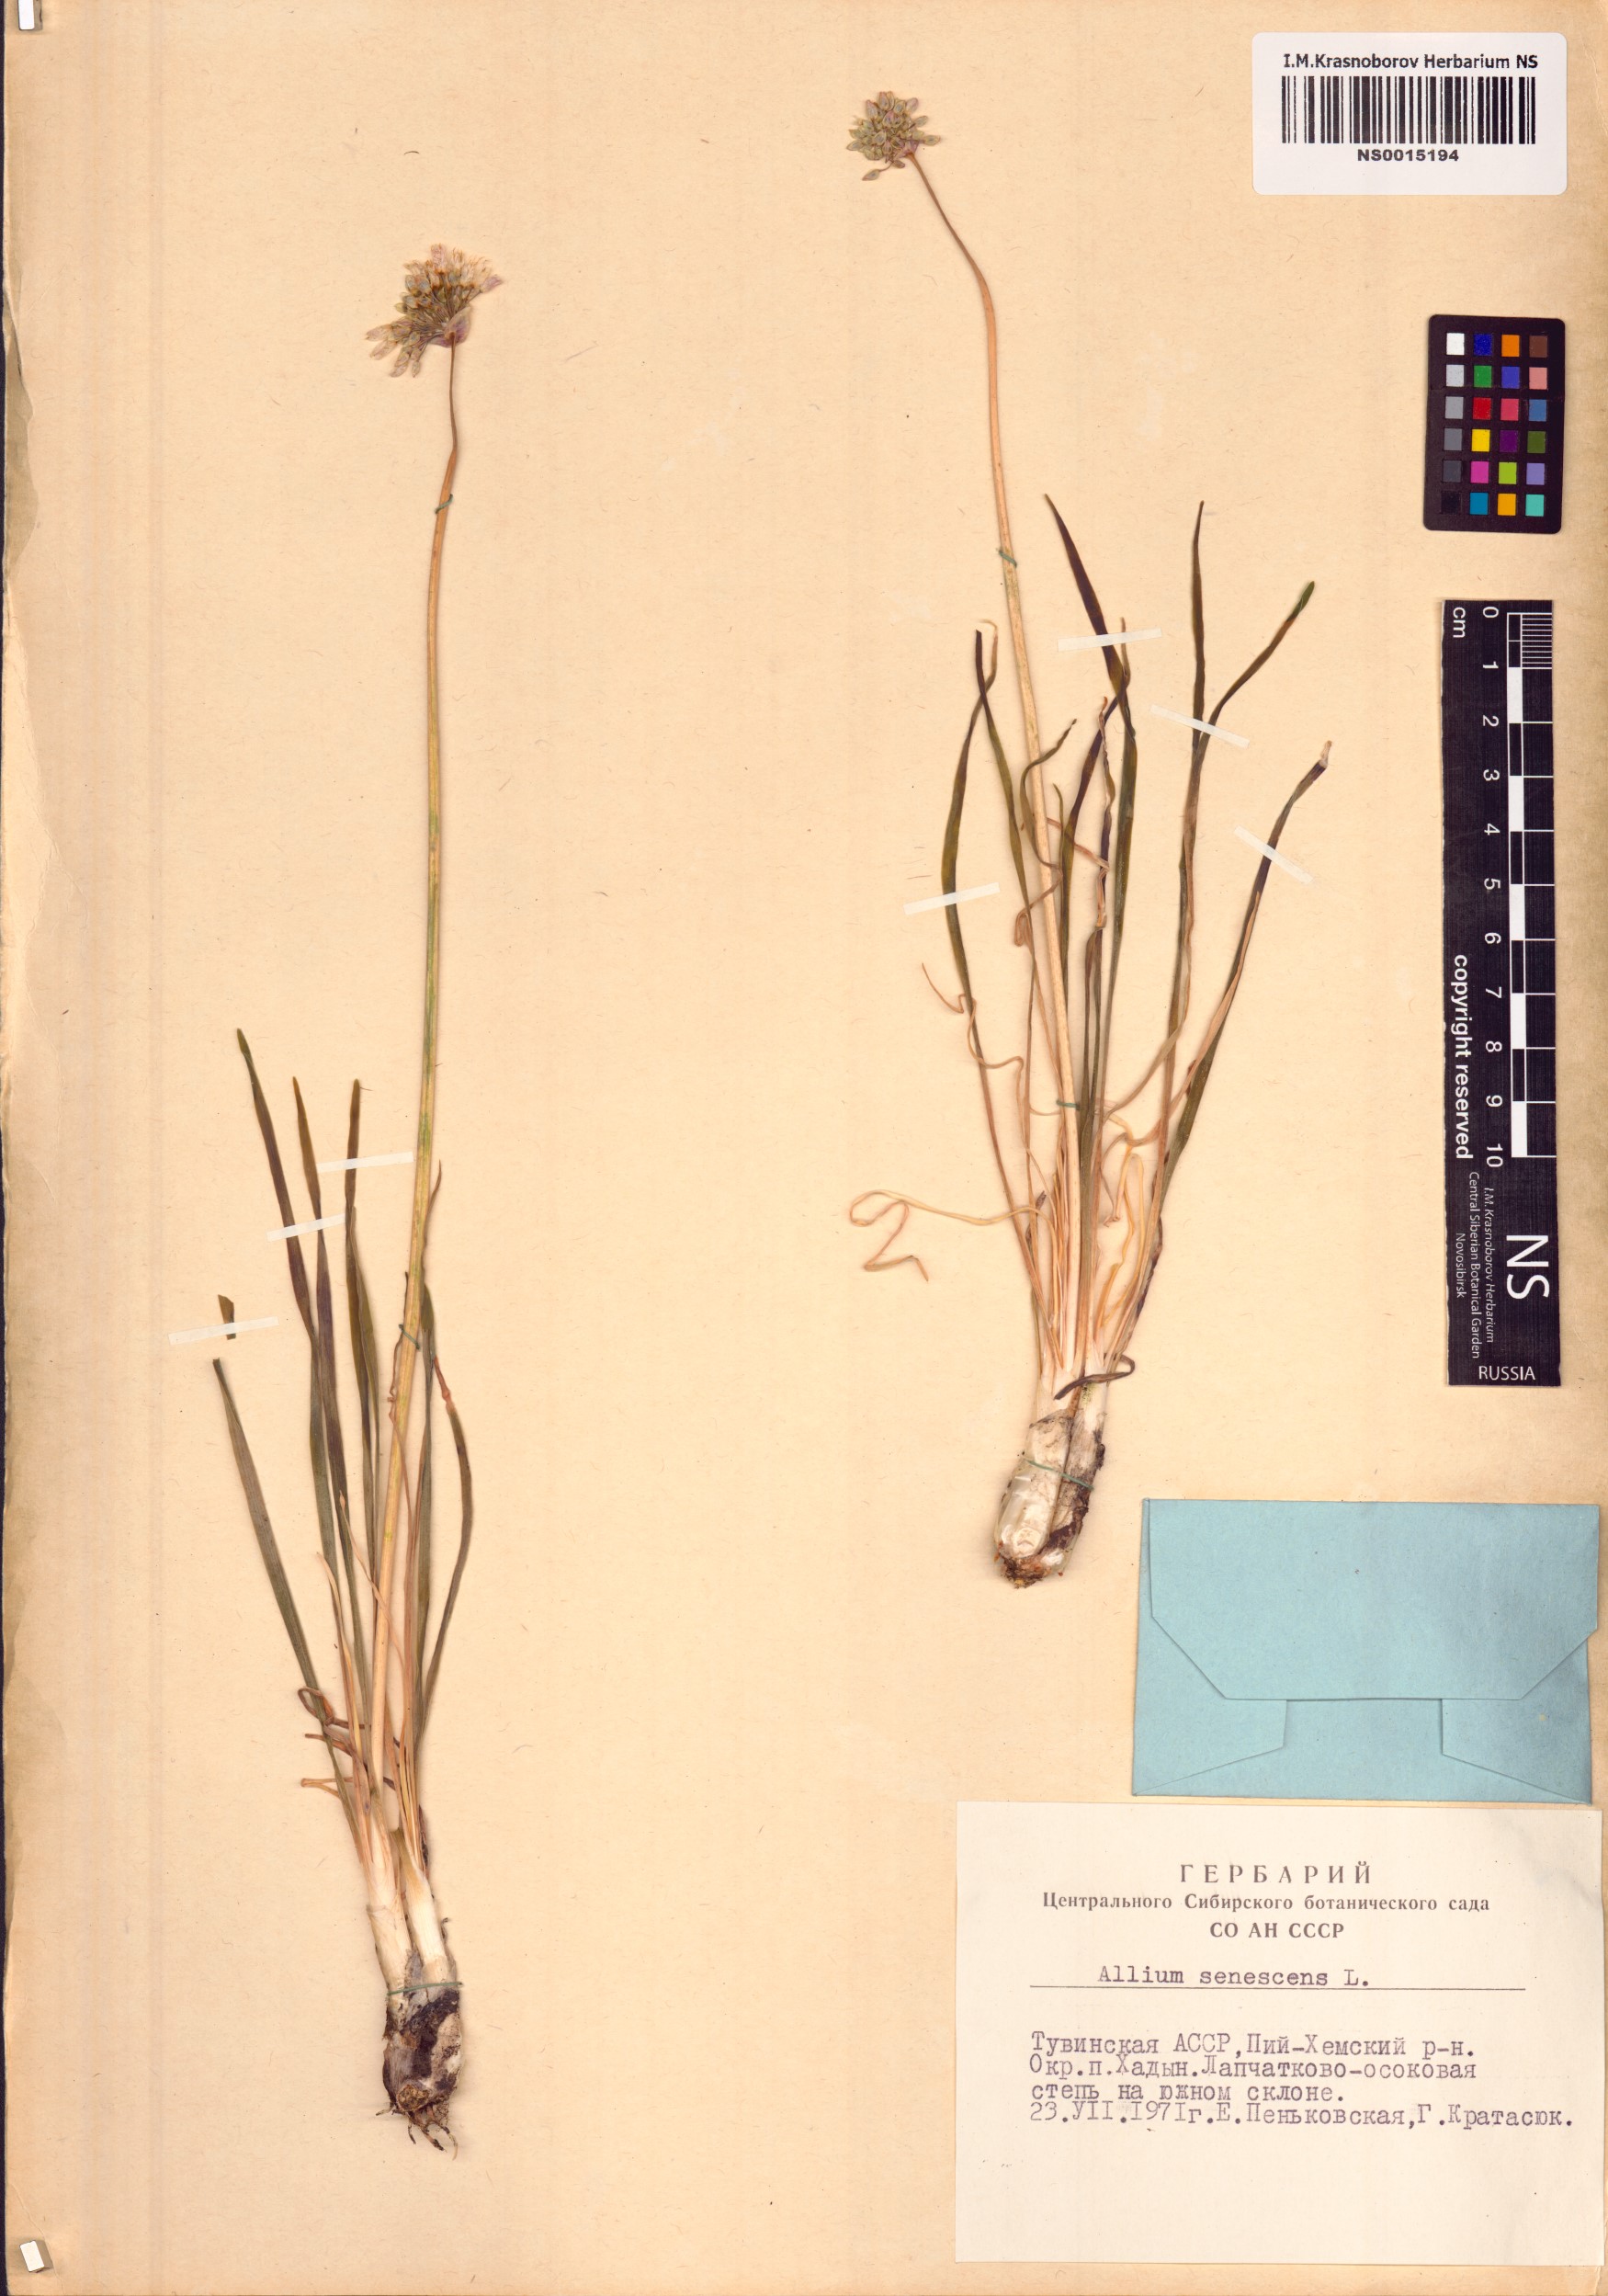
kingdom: Plantae
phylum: Tracheophyta
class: Liliopsida
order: Asparagales
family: Amaryllidaceae
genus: Allium
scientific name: Allium senescens
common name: German garlic
